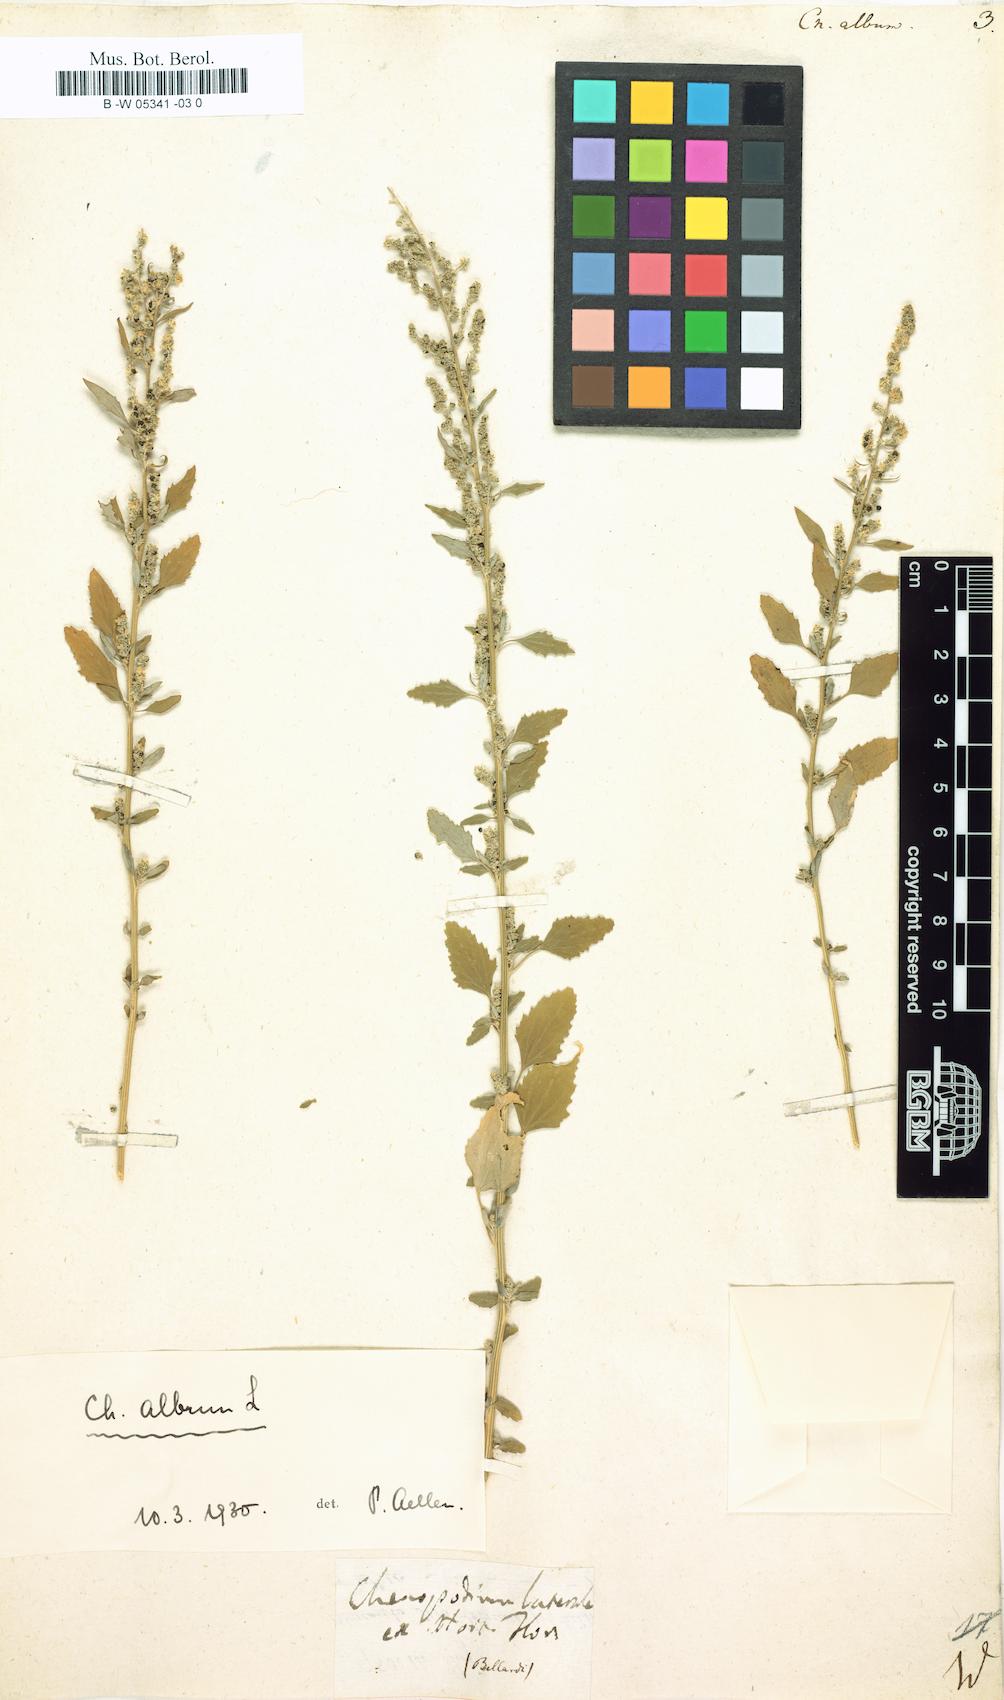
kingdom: Plantae
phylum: Tracheophyta
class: Magnoliopsida
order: Caryophyllales
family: Amaranthaceae
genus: Chenopodium
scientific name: Chenopodium album
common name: Fat-hen
